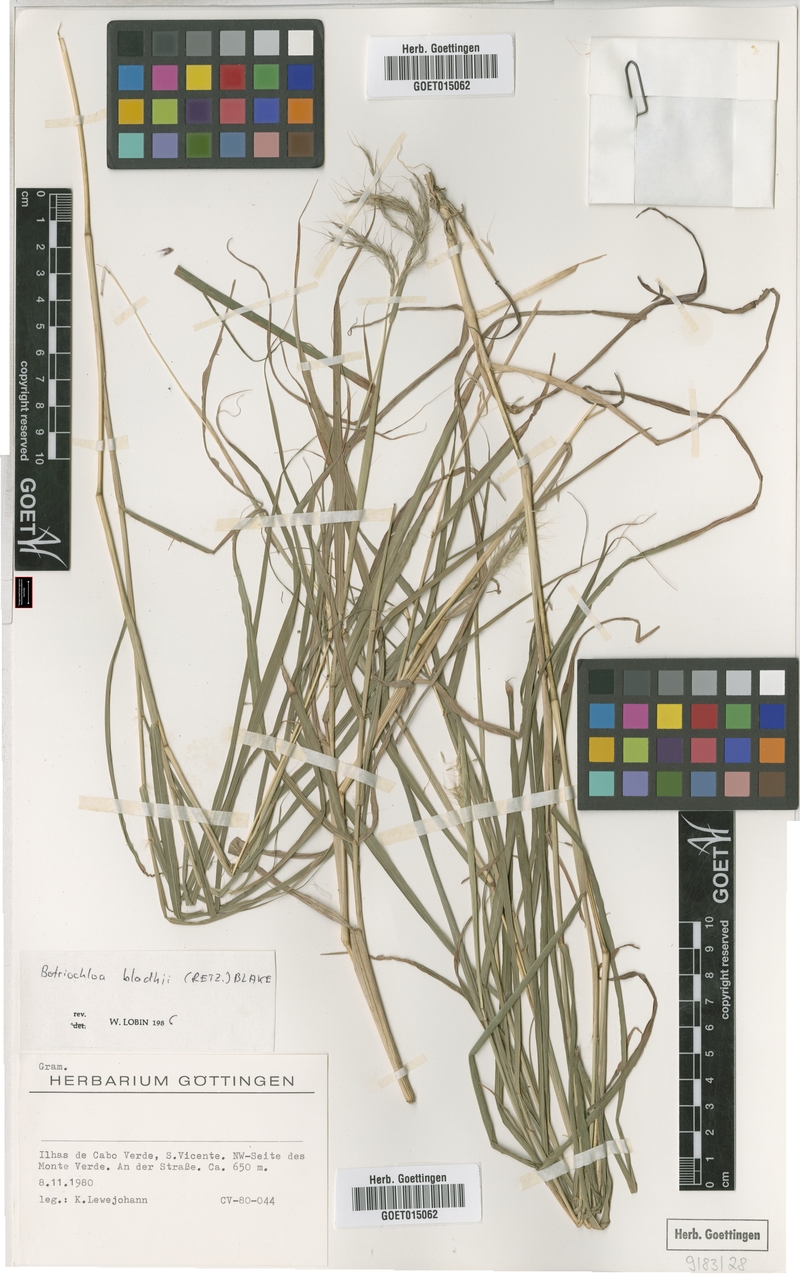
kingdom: Plantae
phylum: Tracheophyta
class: Liliopsida
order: Poales
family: Poaceae
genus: Bothriochloa
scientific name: Bothriochloa bladhii
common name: Caucasian bluestem
